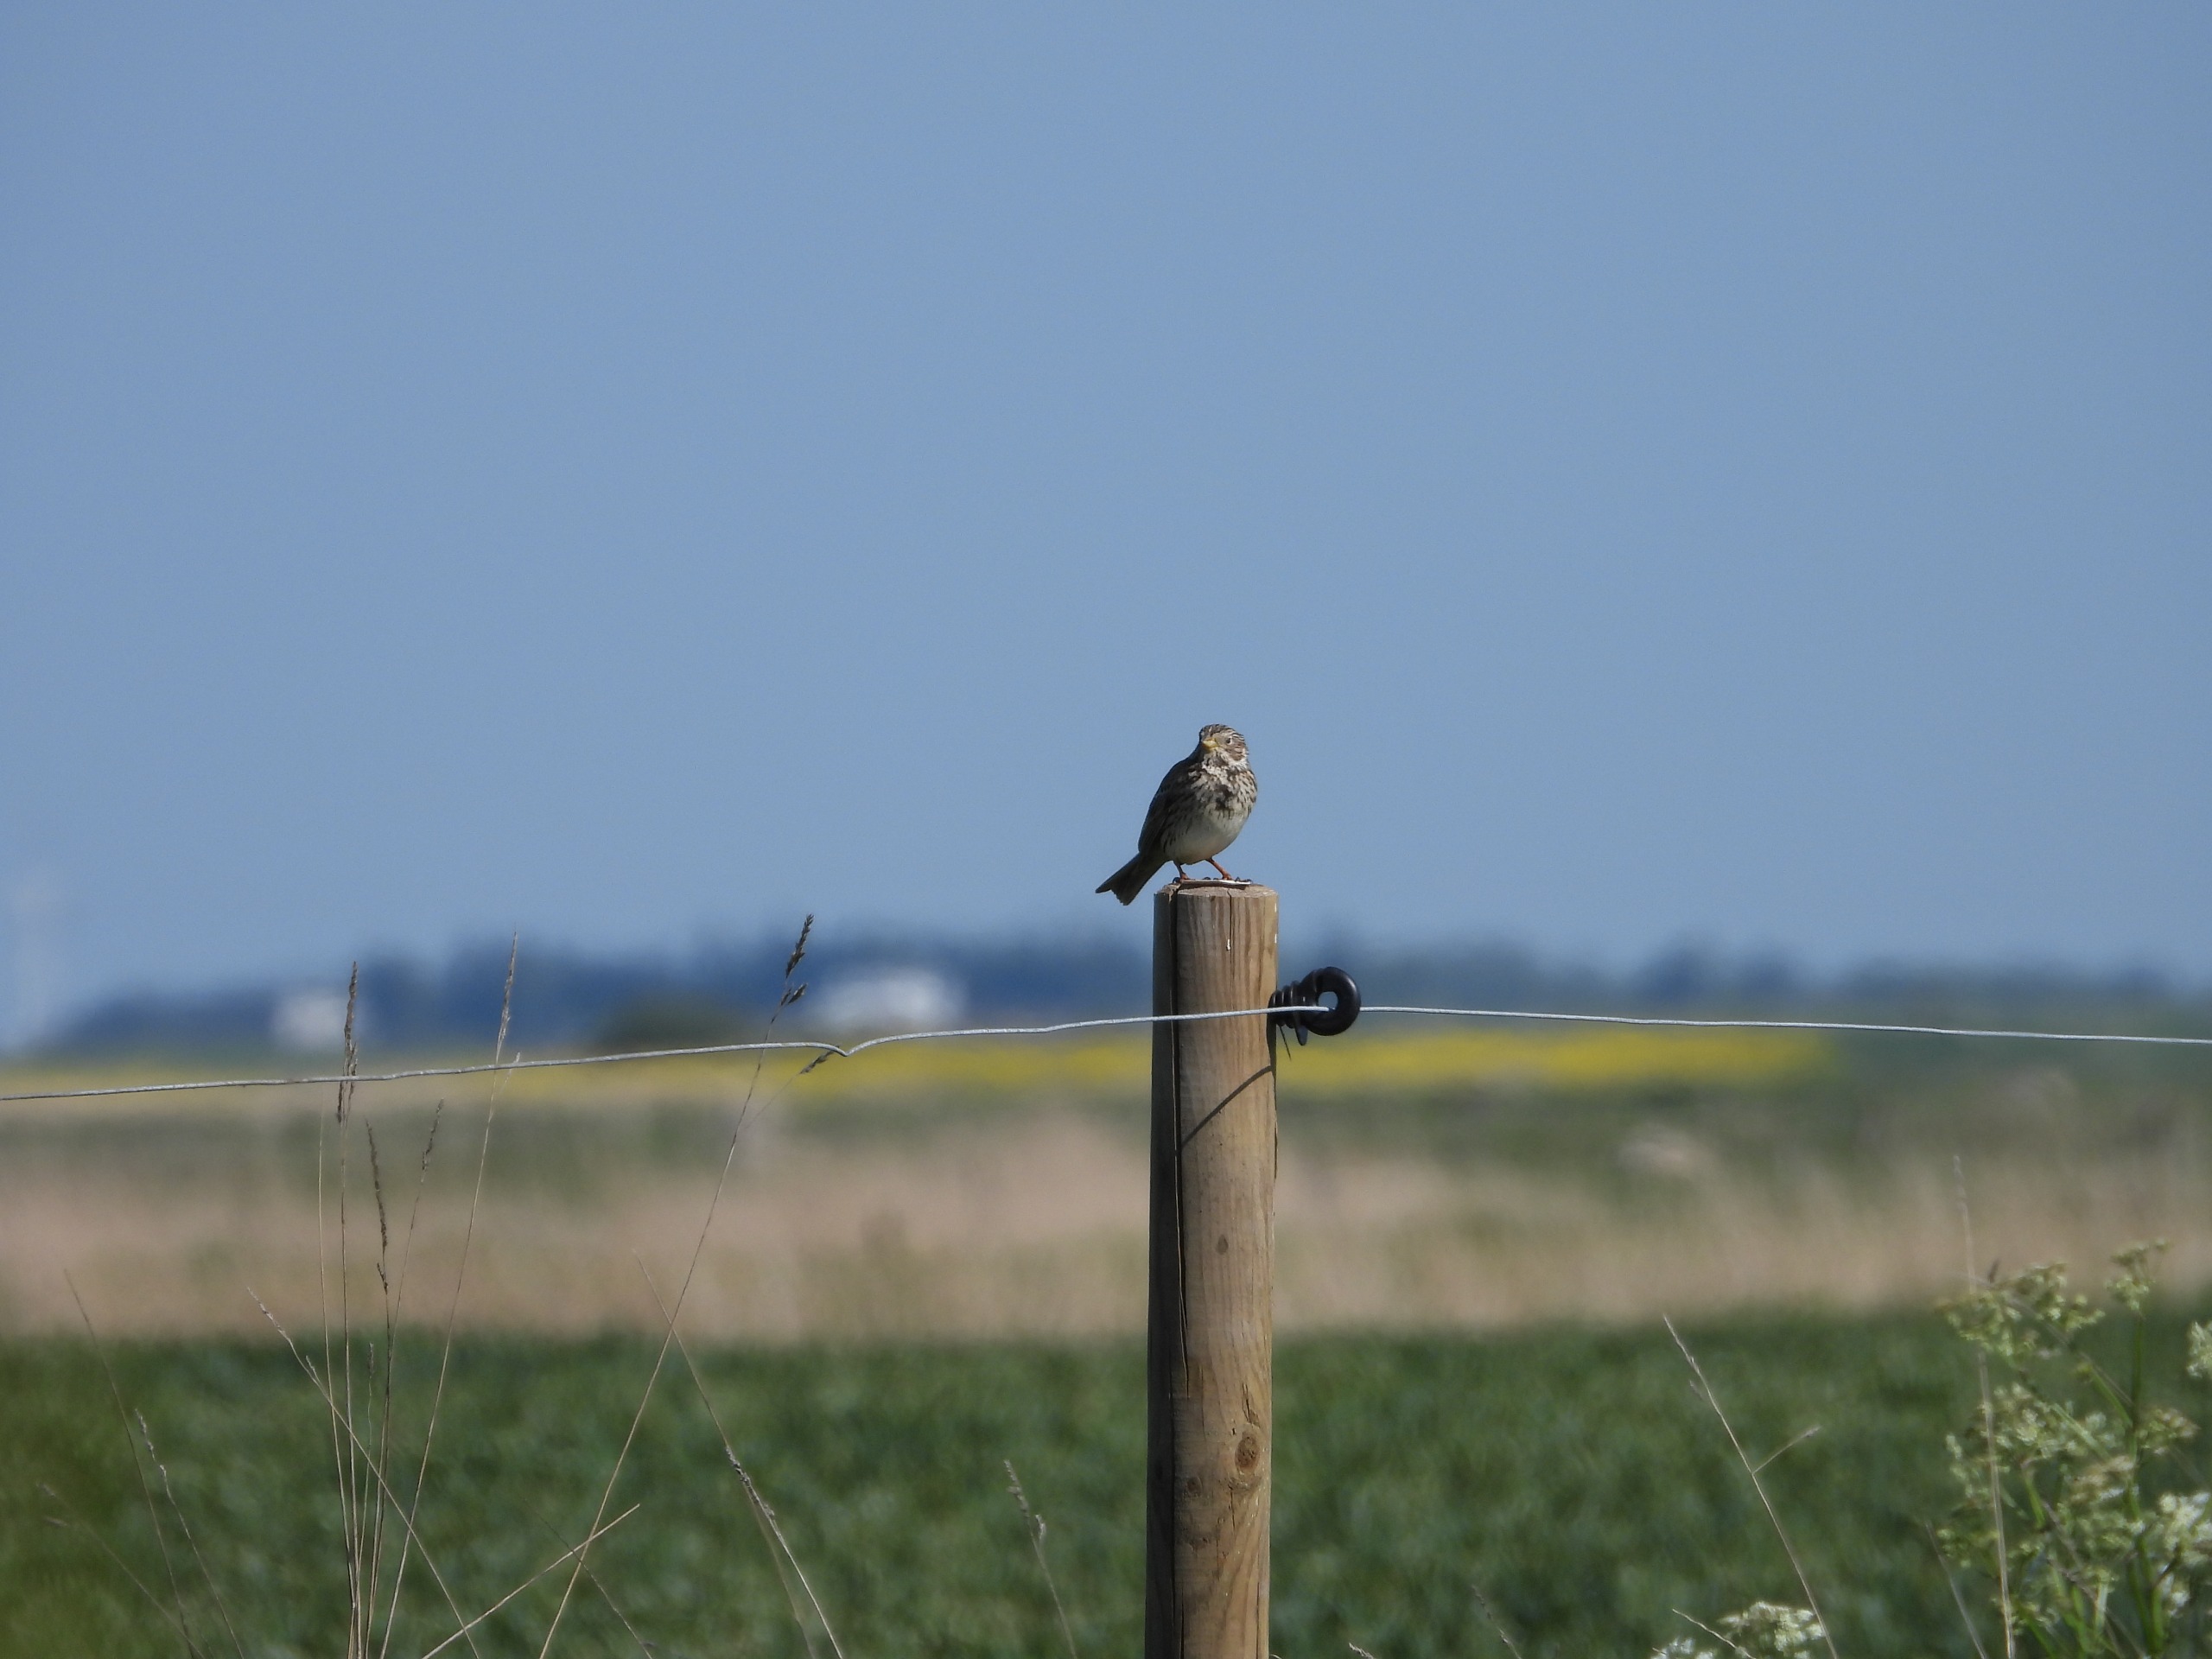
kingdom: Animalia
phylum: Chordata
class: Aves
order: Passeriformes
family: Emberizidae
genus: Emberiza
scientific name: Emberiza calandra
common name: Bomlærke
